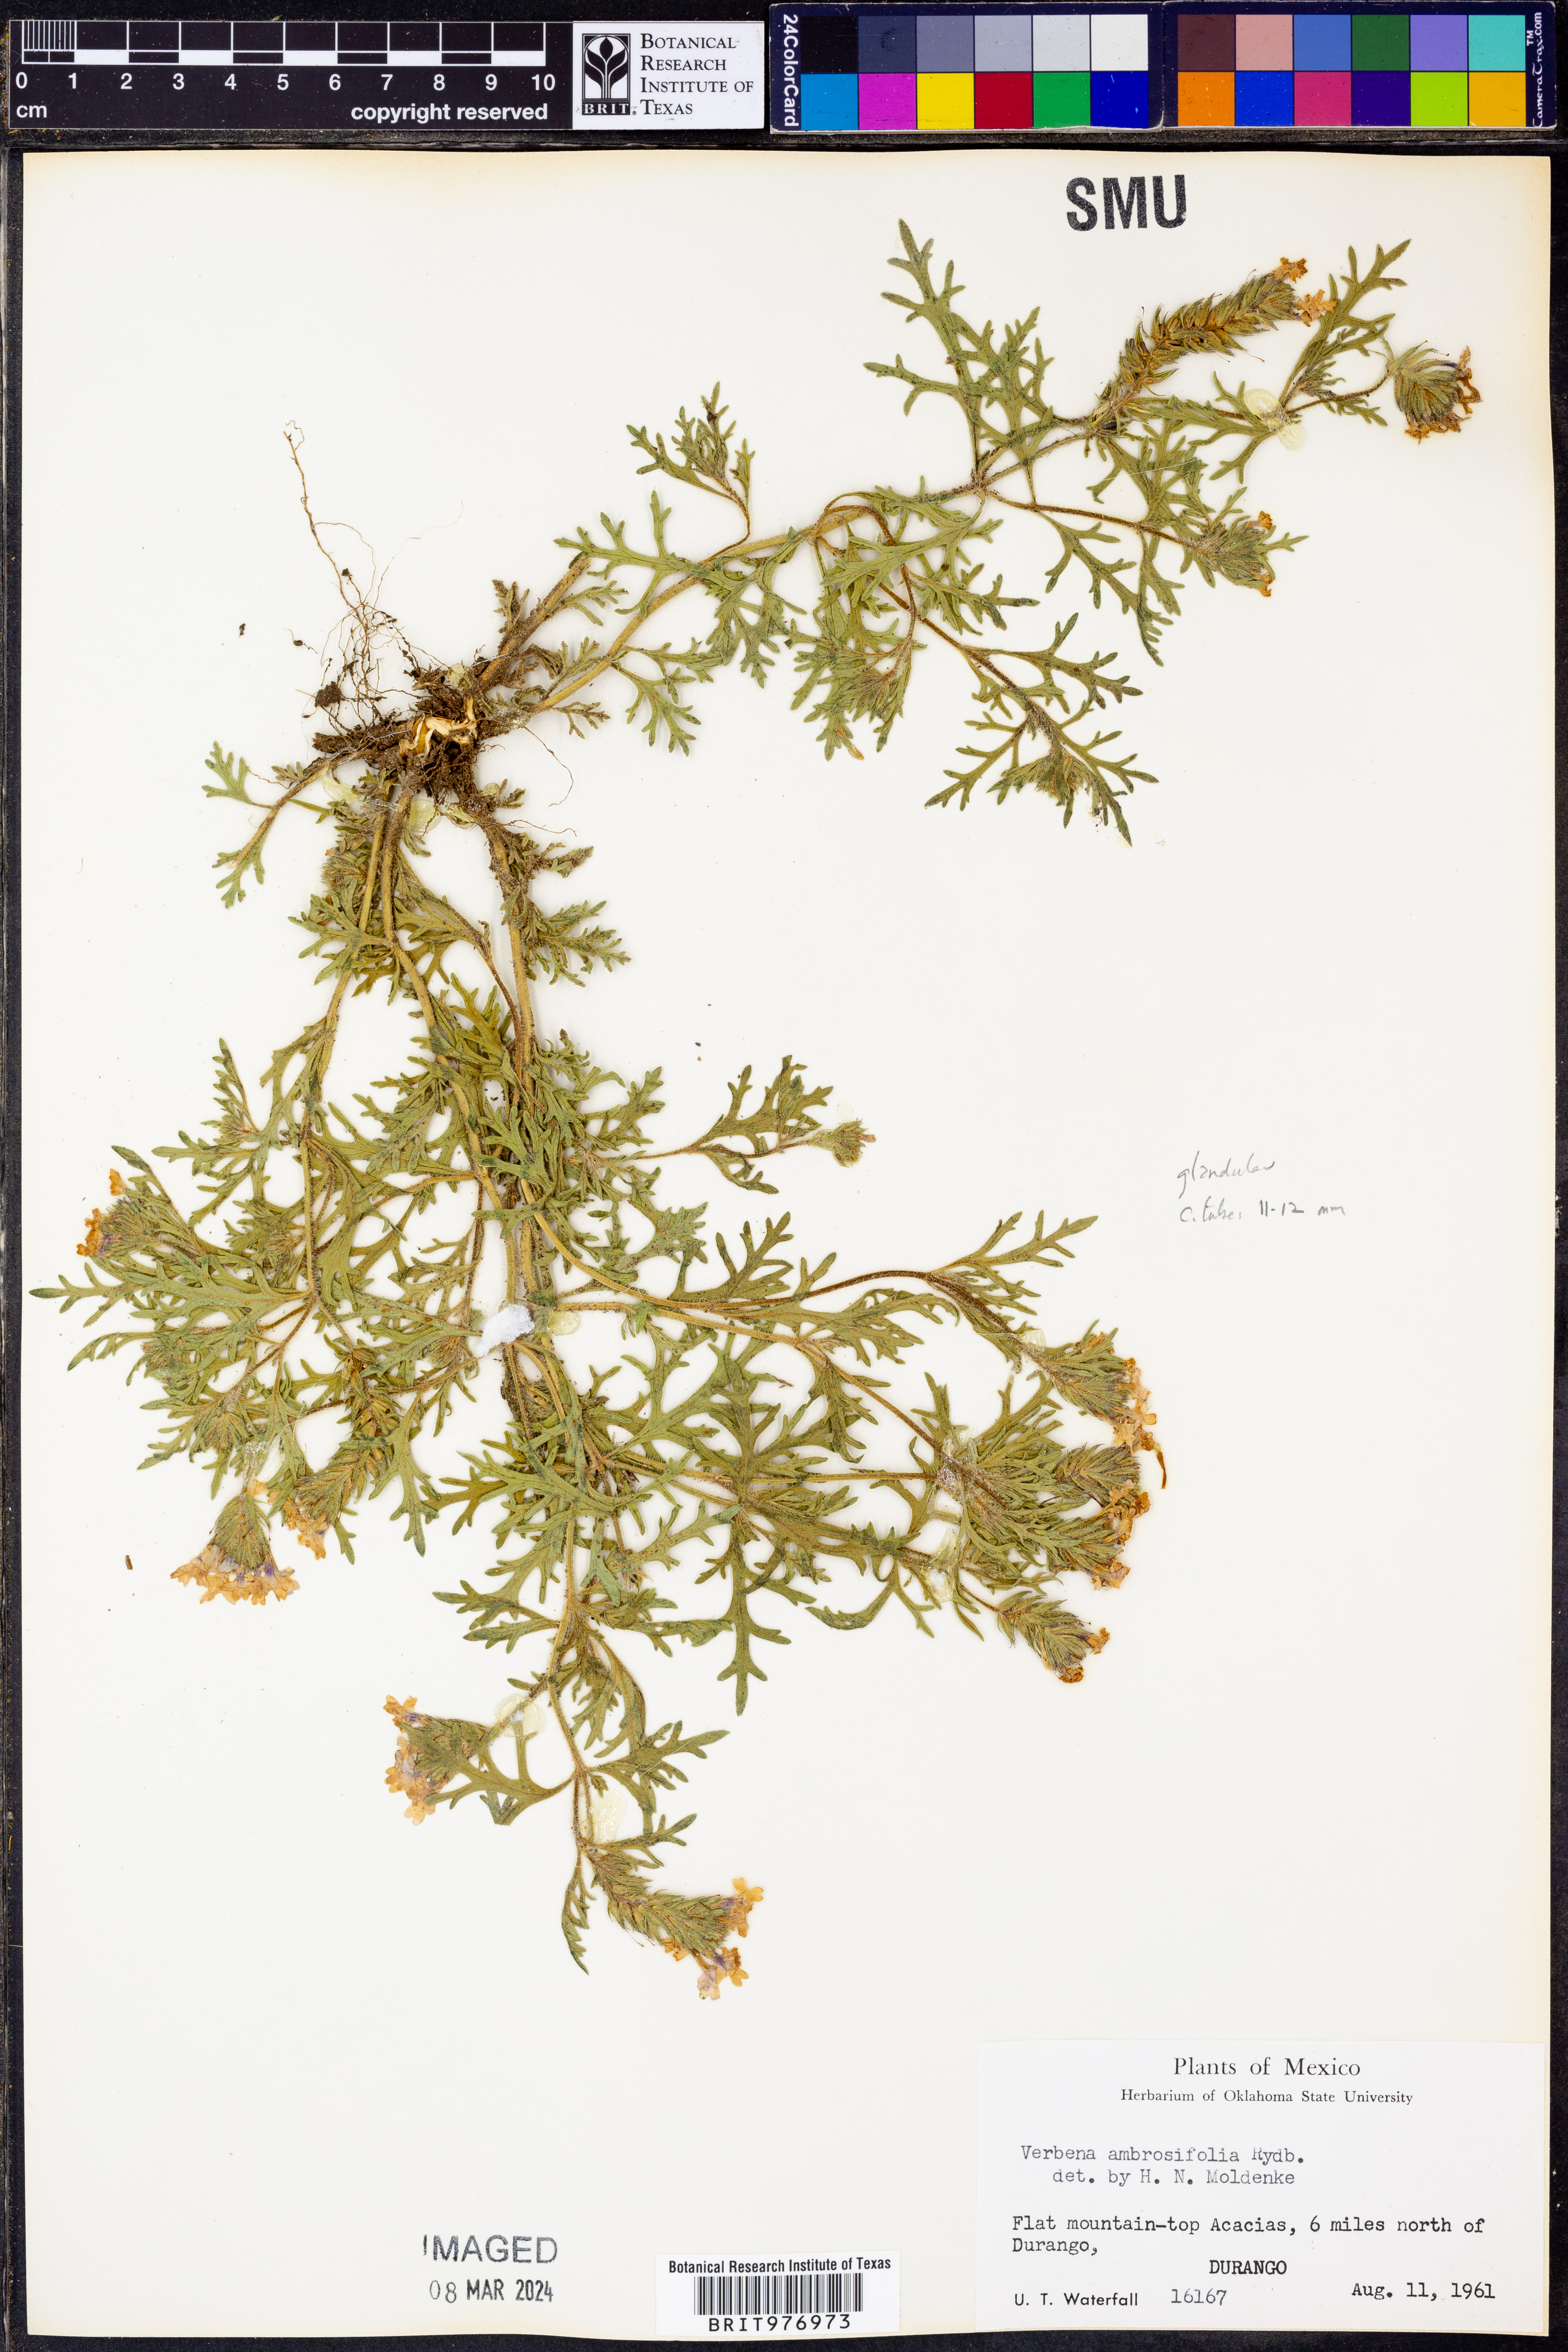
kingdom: Plantae
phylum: Tracheophyta
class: Magnoliopsida
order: Lamiales
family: Verbenaceae
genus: Verbena
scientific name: Verbena
